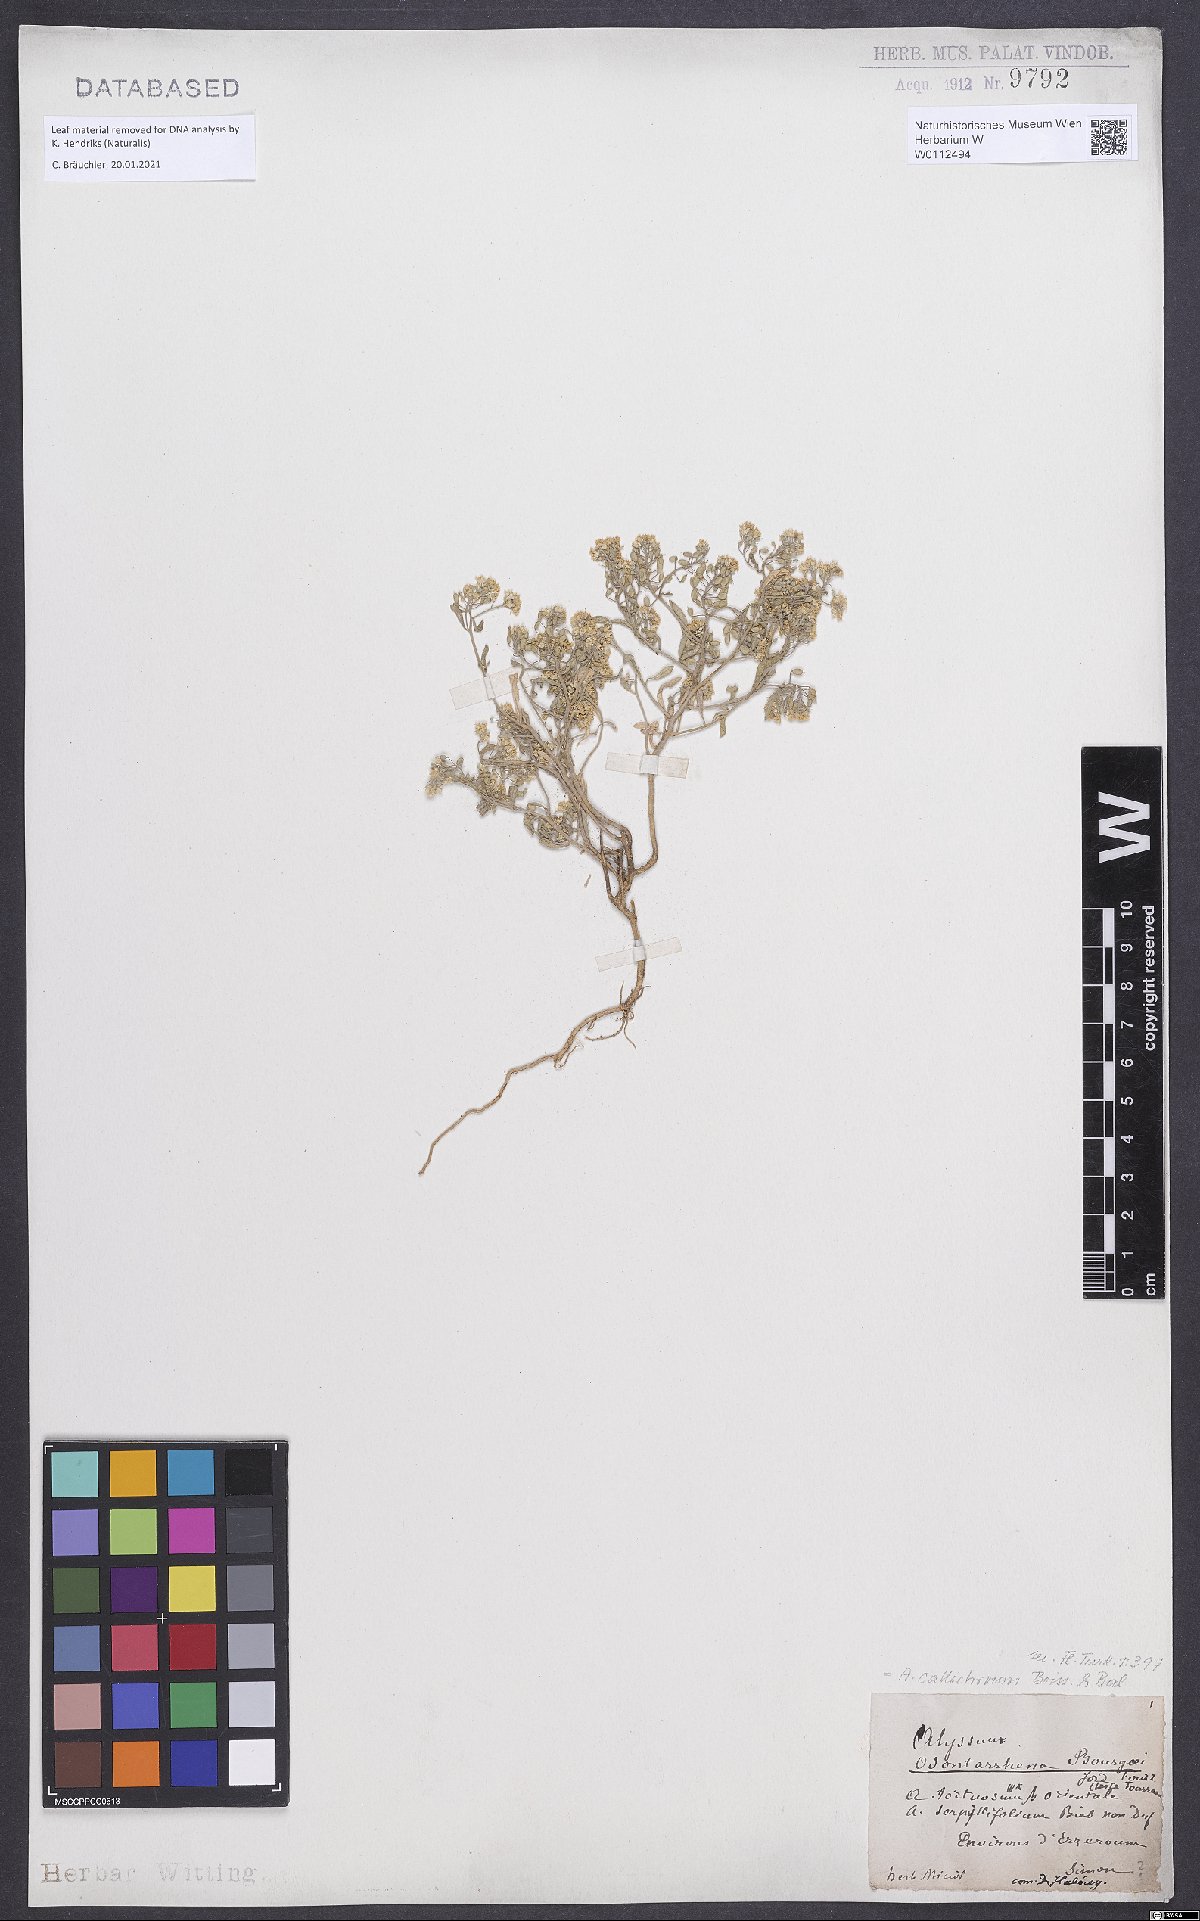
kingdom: Plantae
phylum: Tracheophyta
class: Magnoliopsida
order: Brassicales
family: Brassicaceae
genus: Odontarrhena
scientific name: Odontarrhena callichroa
